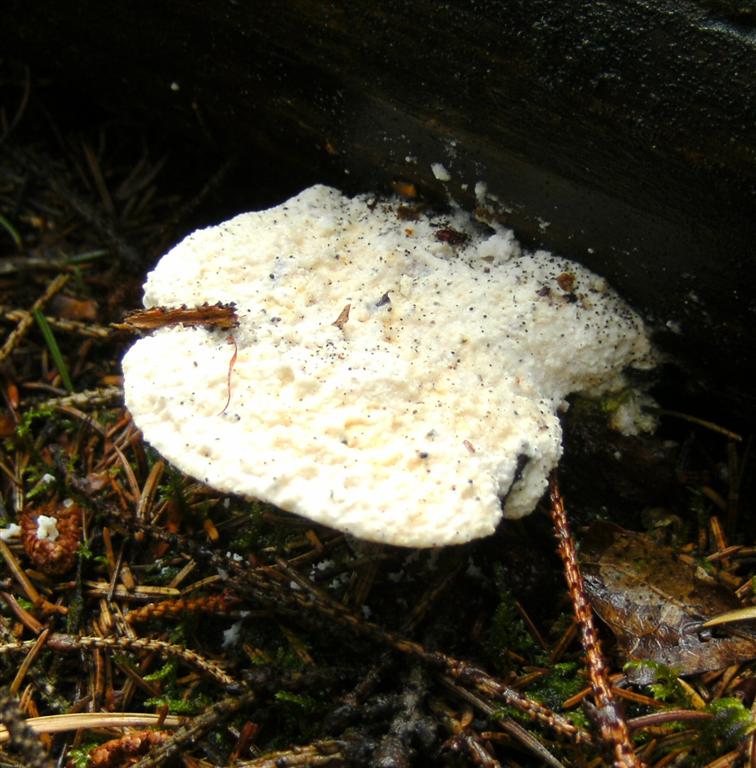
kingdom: Fungi
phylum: Basidiomycota
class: Agaricomycetes
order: Polyporales
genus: Amaropostia
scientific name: Amaropostia stiptica
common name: bitter kødporesvamp
